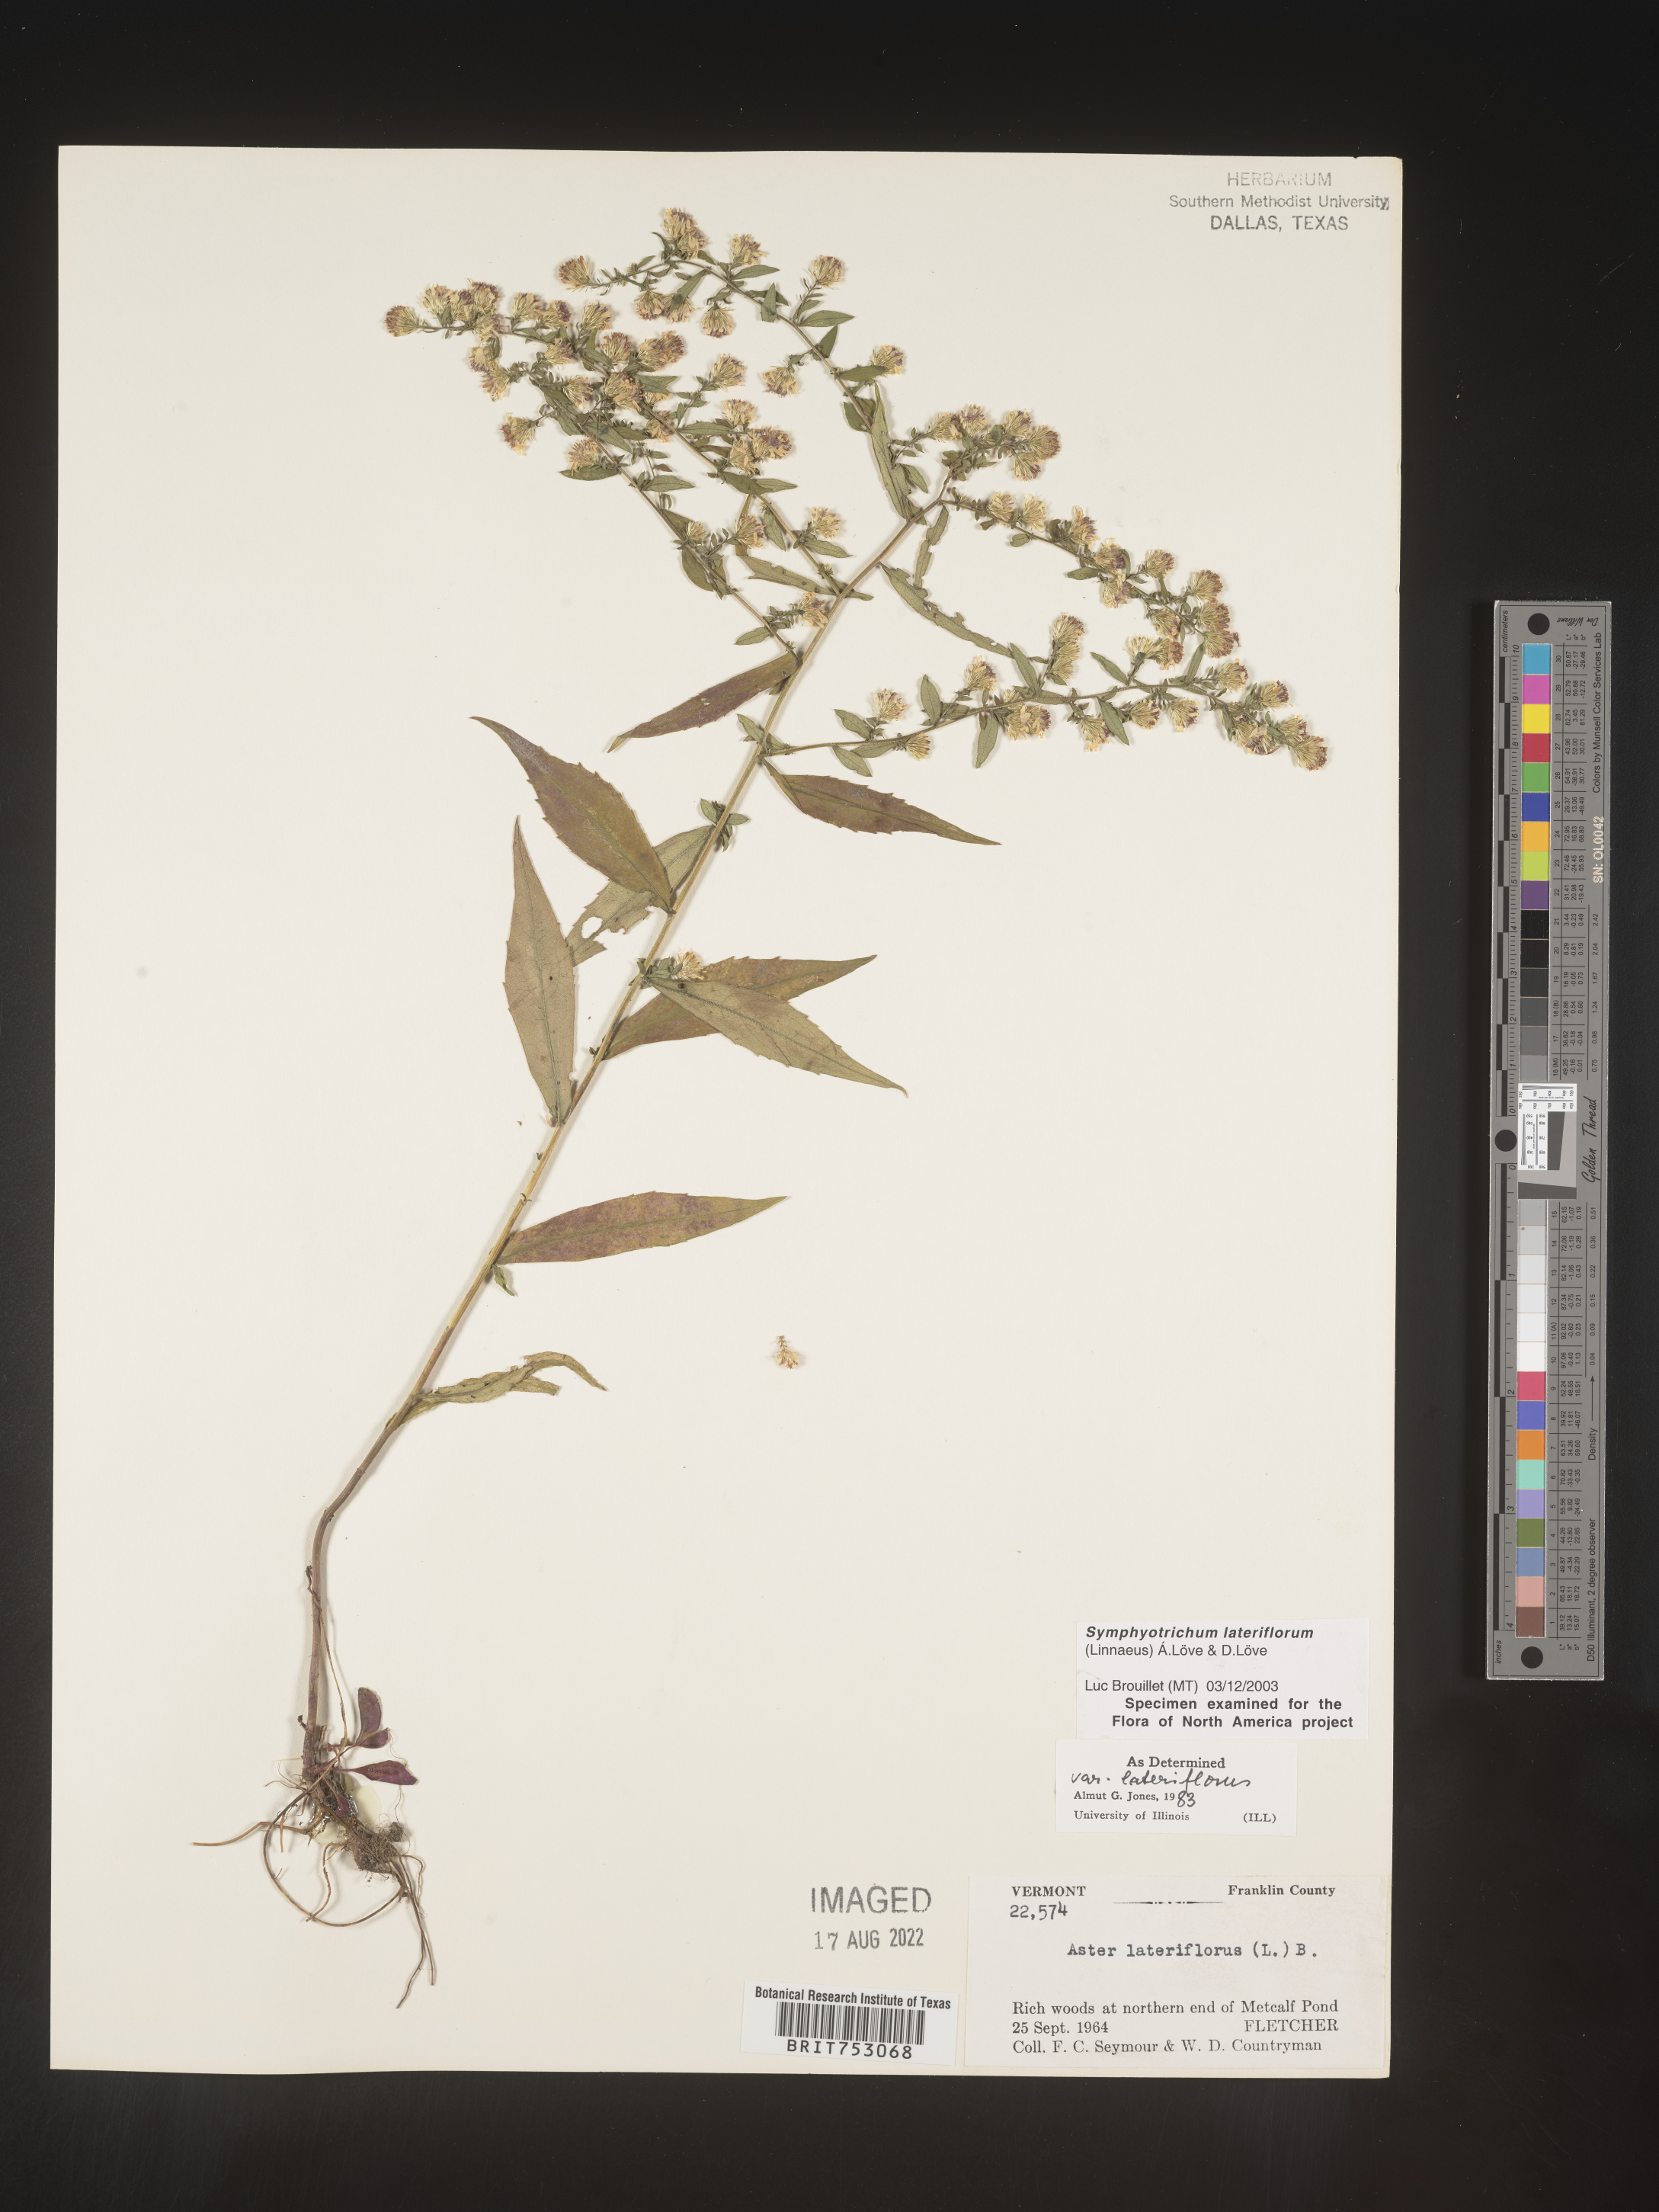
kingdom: Plantae
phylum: Tracheophyta
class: Magnoliopsida
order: Asterales
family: Asteraceae
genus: Symphyotrichum
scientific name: Symphyotrichum lateriflorum
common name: Calico aster
